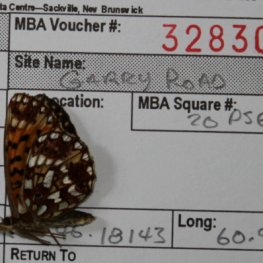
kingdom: Animalia
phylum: Arthropoda
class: Insecta
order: Lepidoptera
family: Nymphalidae
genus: Boloria
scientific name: Boloria selene
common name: Silver-bordered Fritillary
